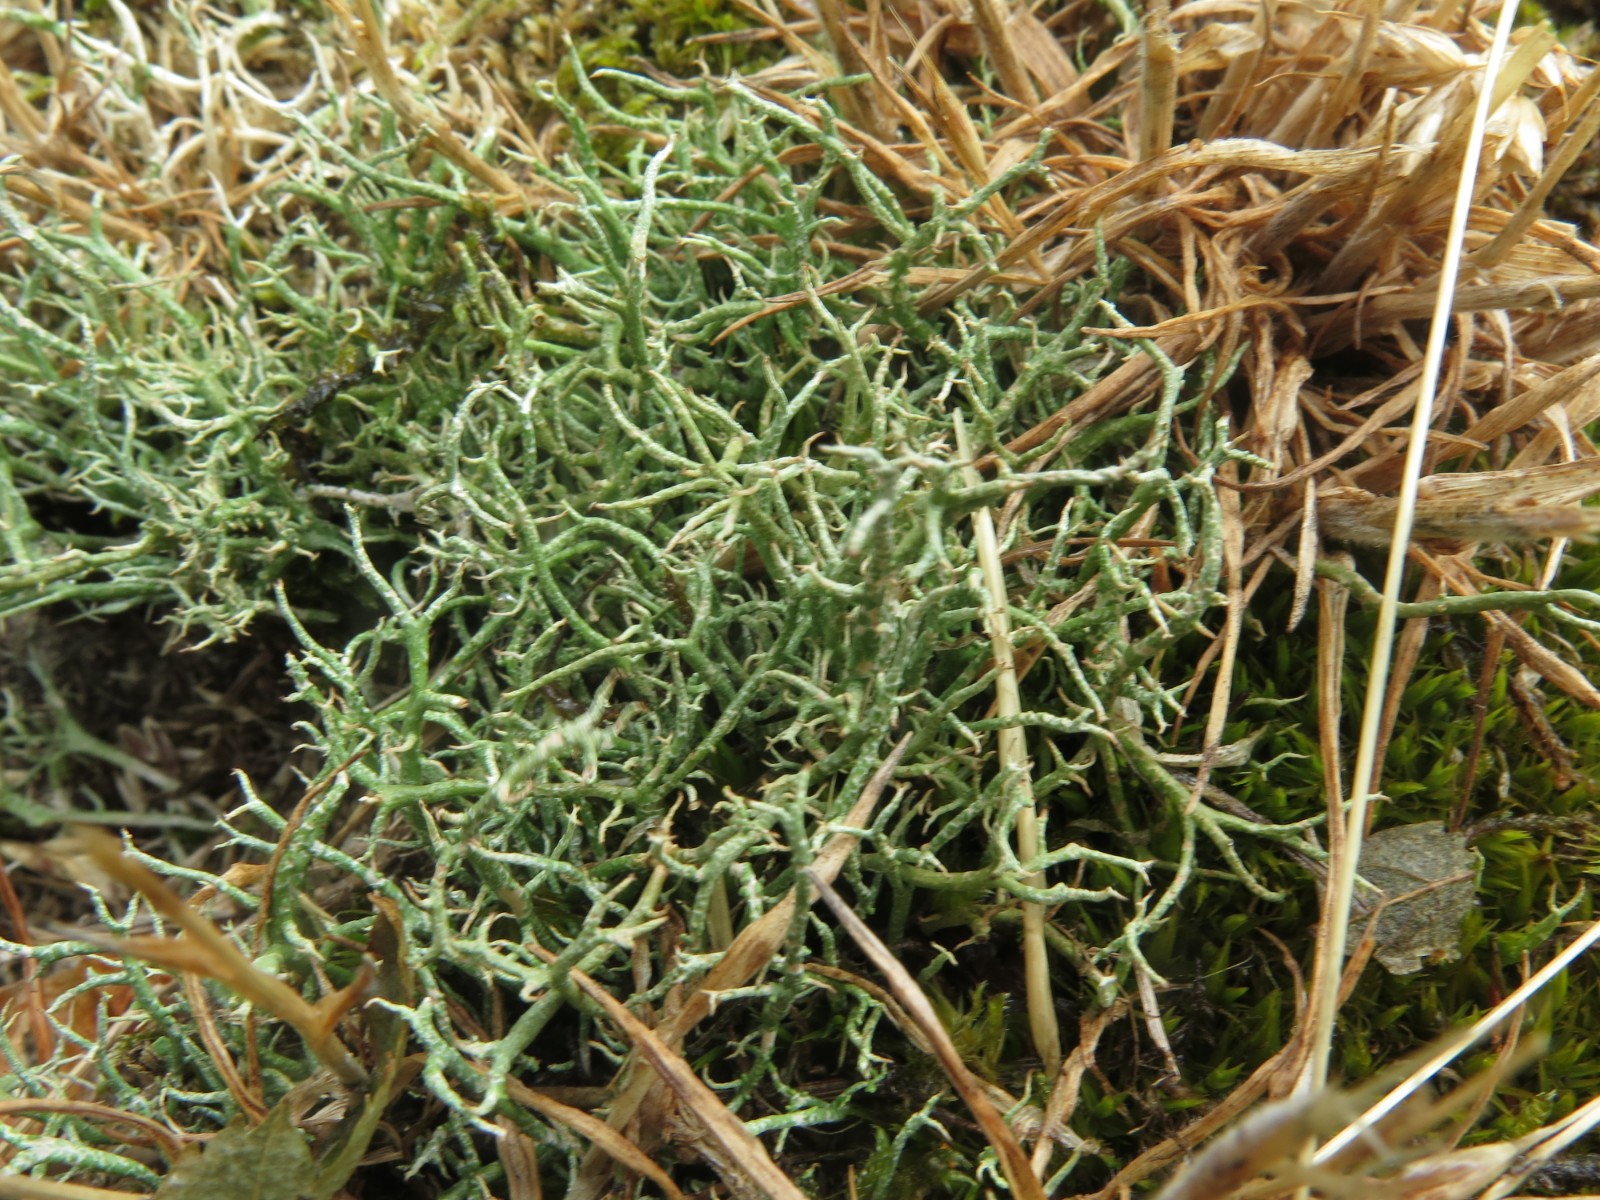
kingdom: Fungi
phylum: Ascomycota
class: Lecanoromycetes
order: Lecanorales
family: Cladoniaceae
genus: Cladonia
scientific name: Cladonia rangiformis
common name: spættet bægerlav
